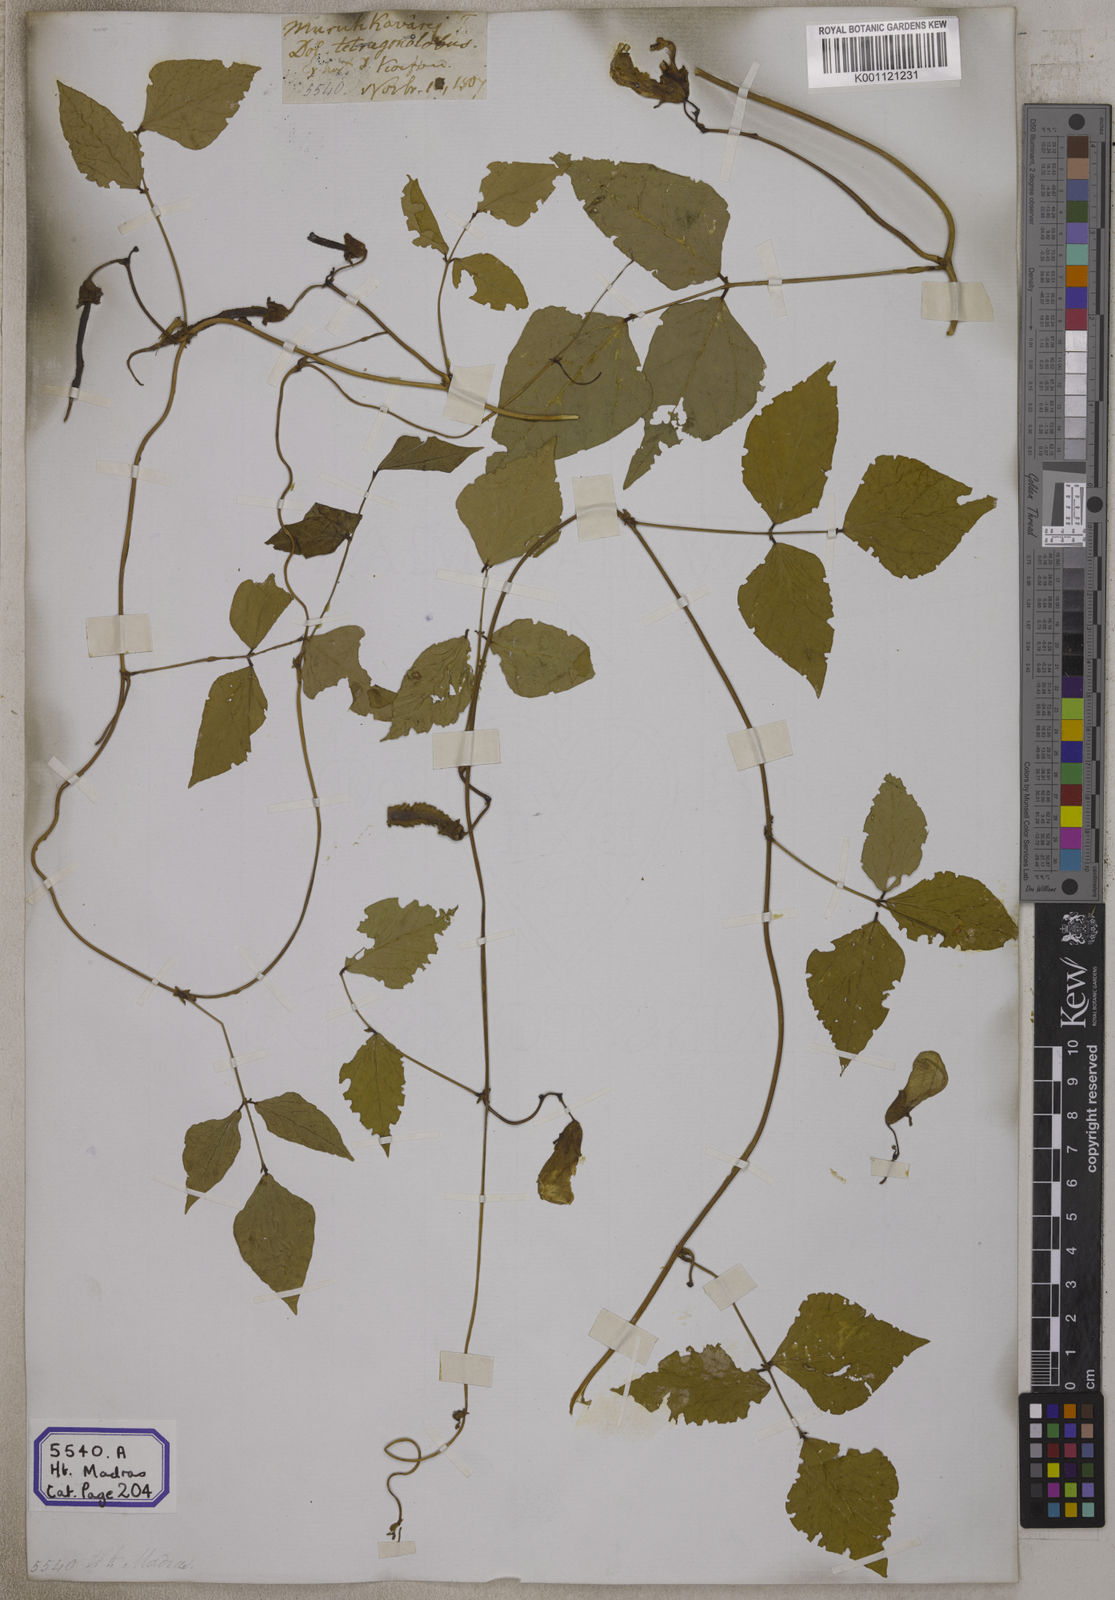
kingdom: Plantae
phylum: Tracheophyta
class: Magnoliopsida
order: Fabales
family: Fabaceae
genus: Psophocarpus
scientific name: Psophocarpus tetragonolobus
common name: Goa-bean
